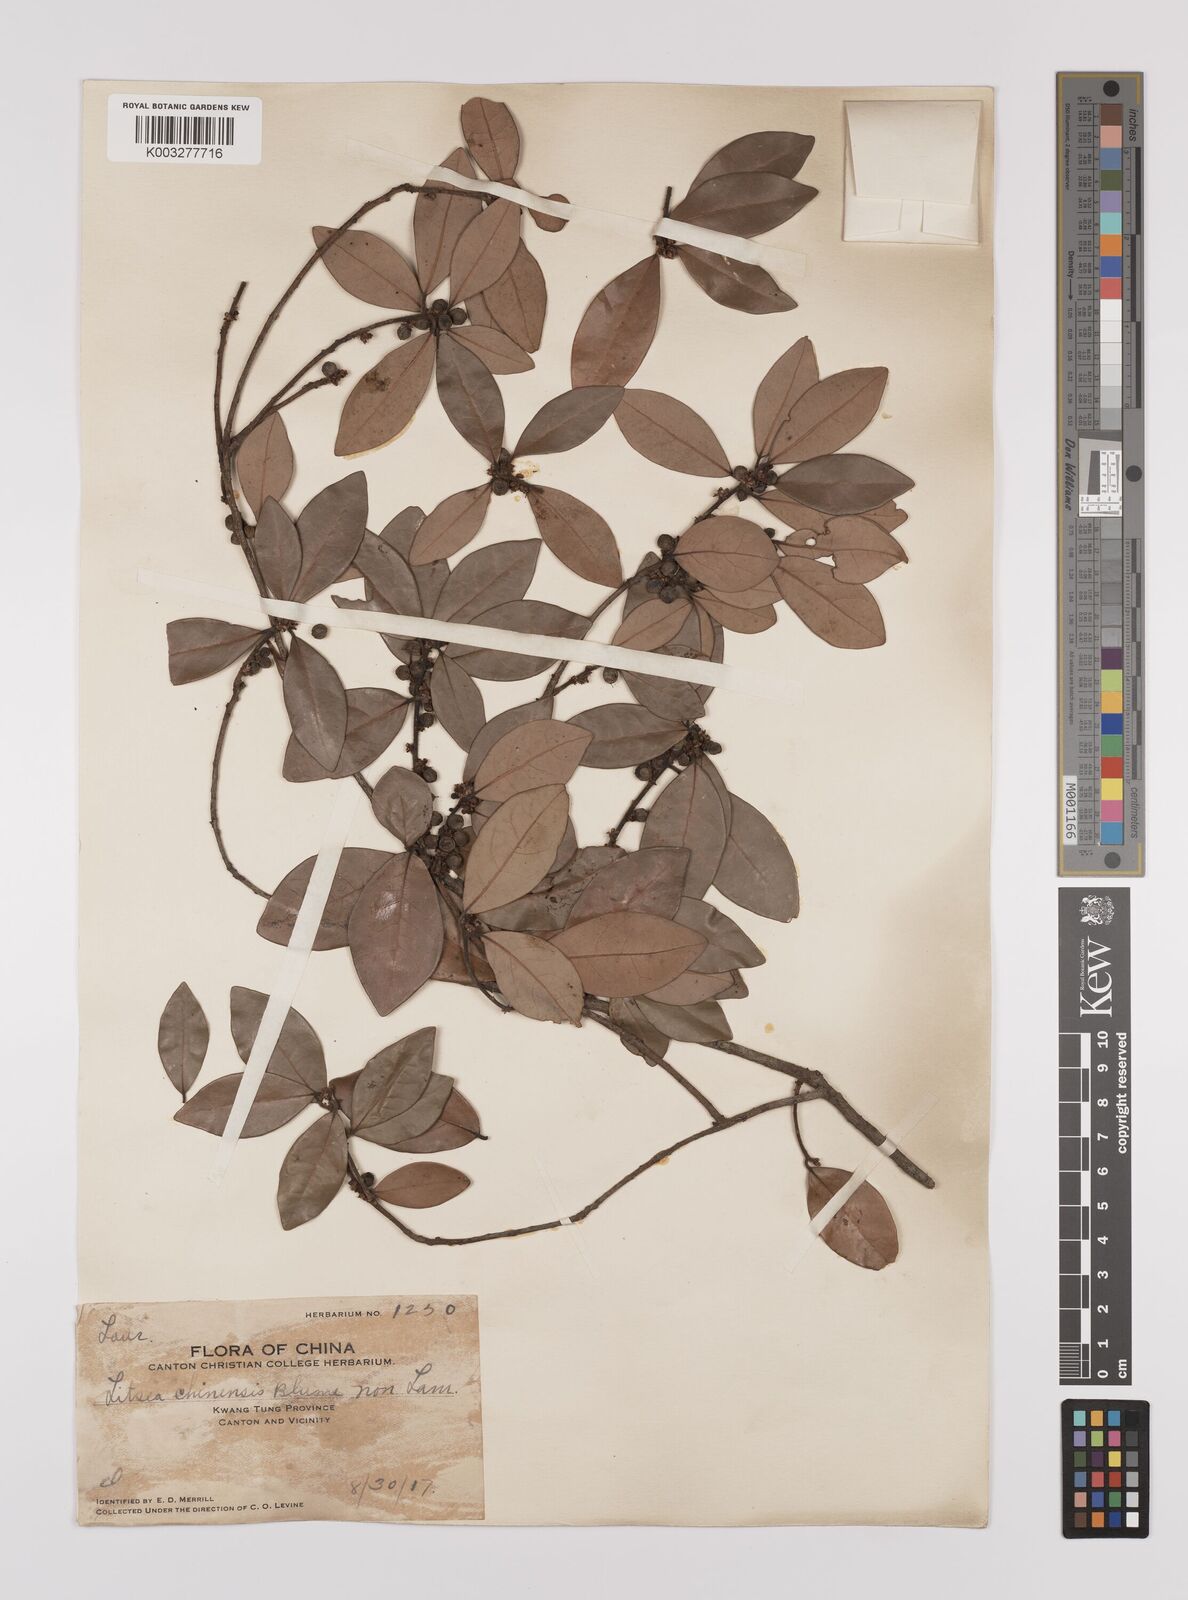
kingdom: Plantae
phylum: Tracheophyta
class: Magnoliopsida
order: Laurales
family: Lauraceae
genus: Litsea
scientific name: Litsea rotundifolia
